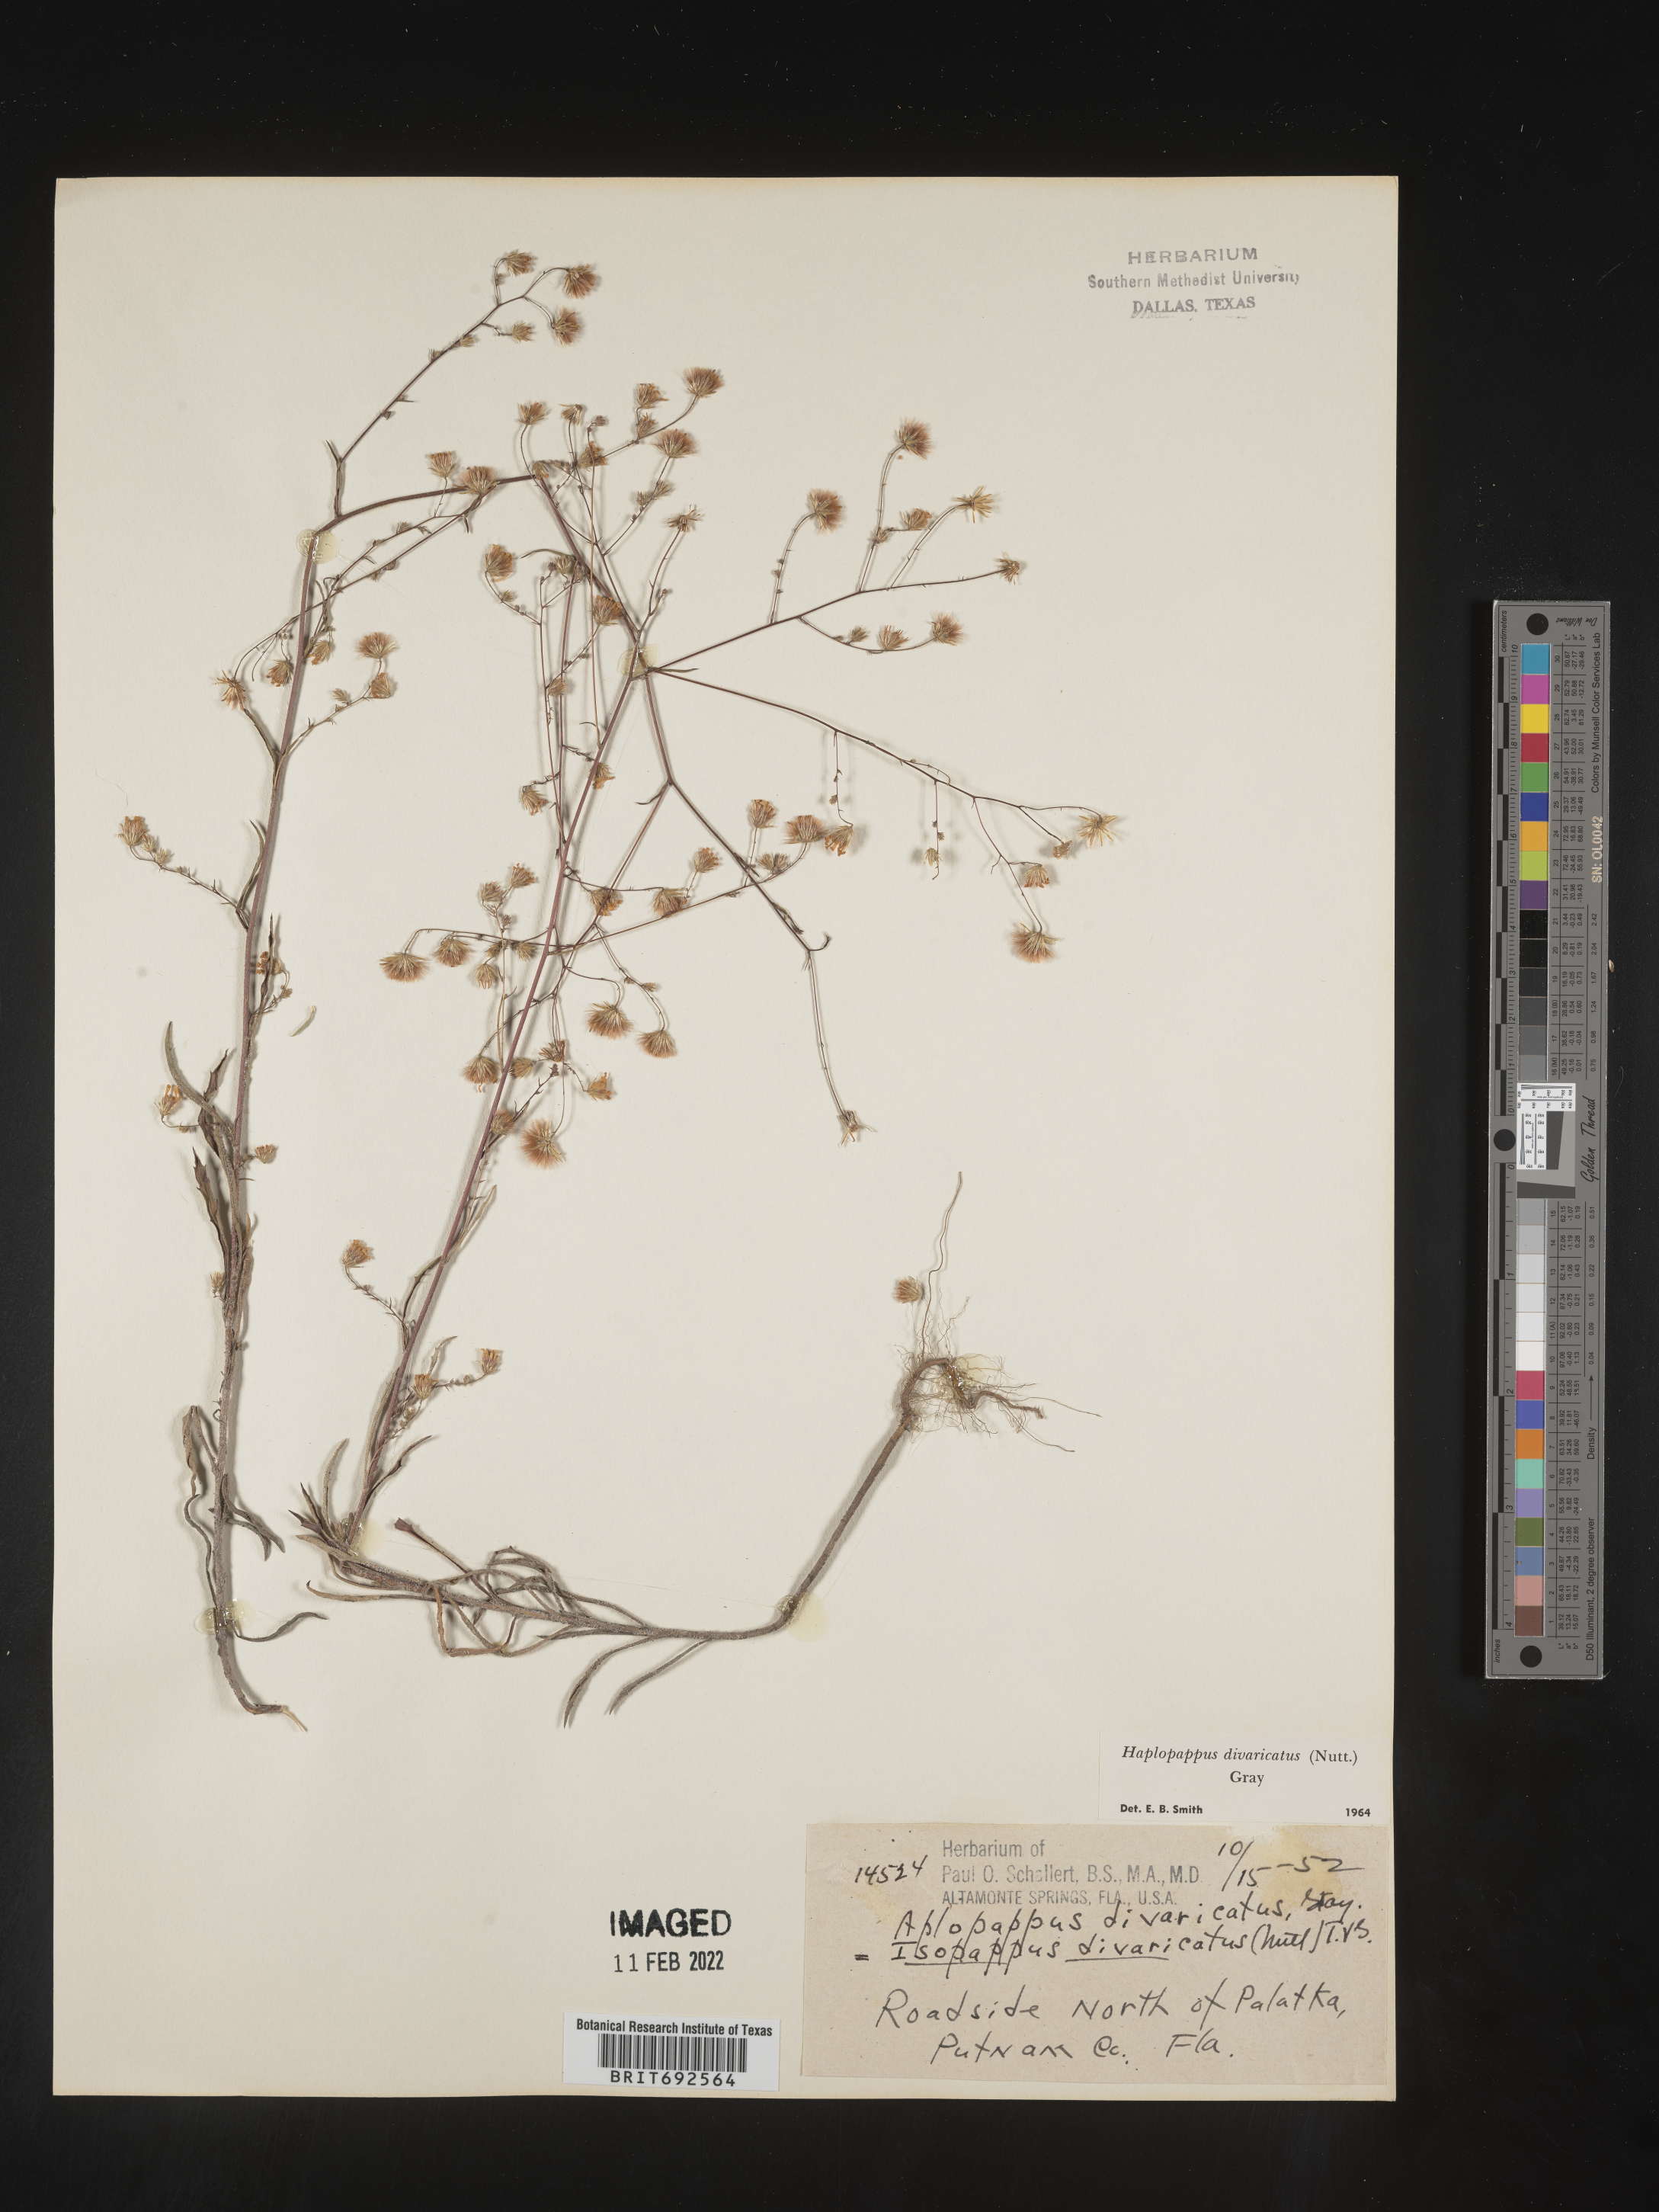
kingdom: Plantae
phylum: Tracheophyta
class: Magnoliopsida
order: Asterales
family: Asteraceae
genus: Croptilon
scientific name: Croptilon divaricatum
